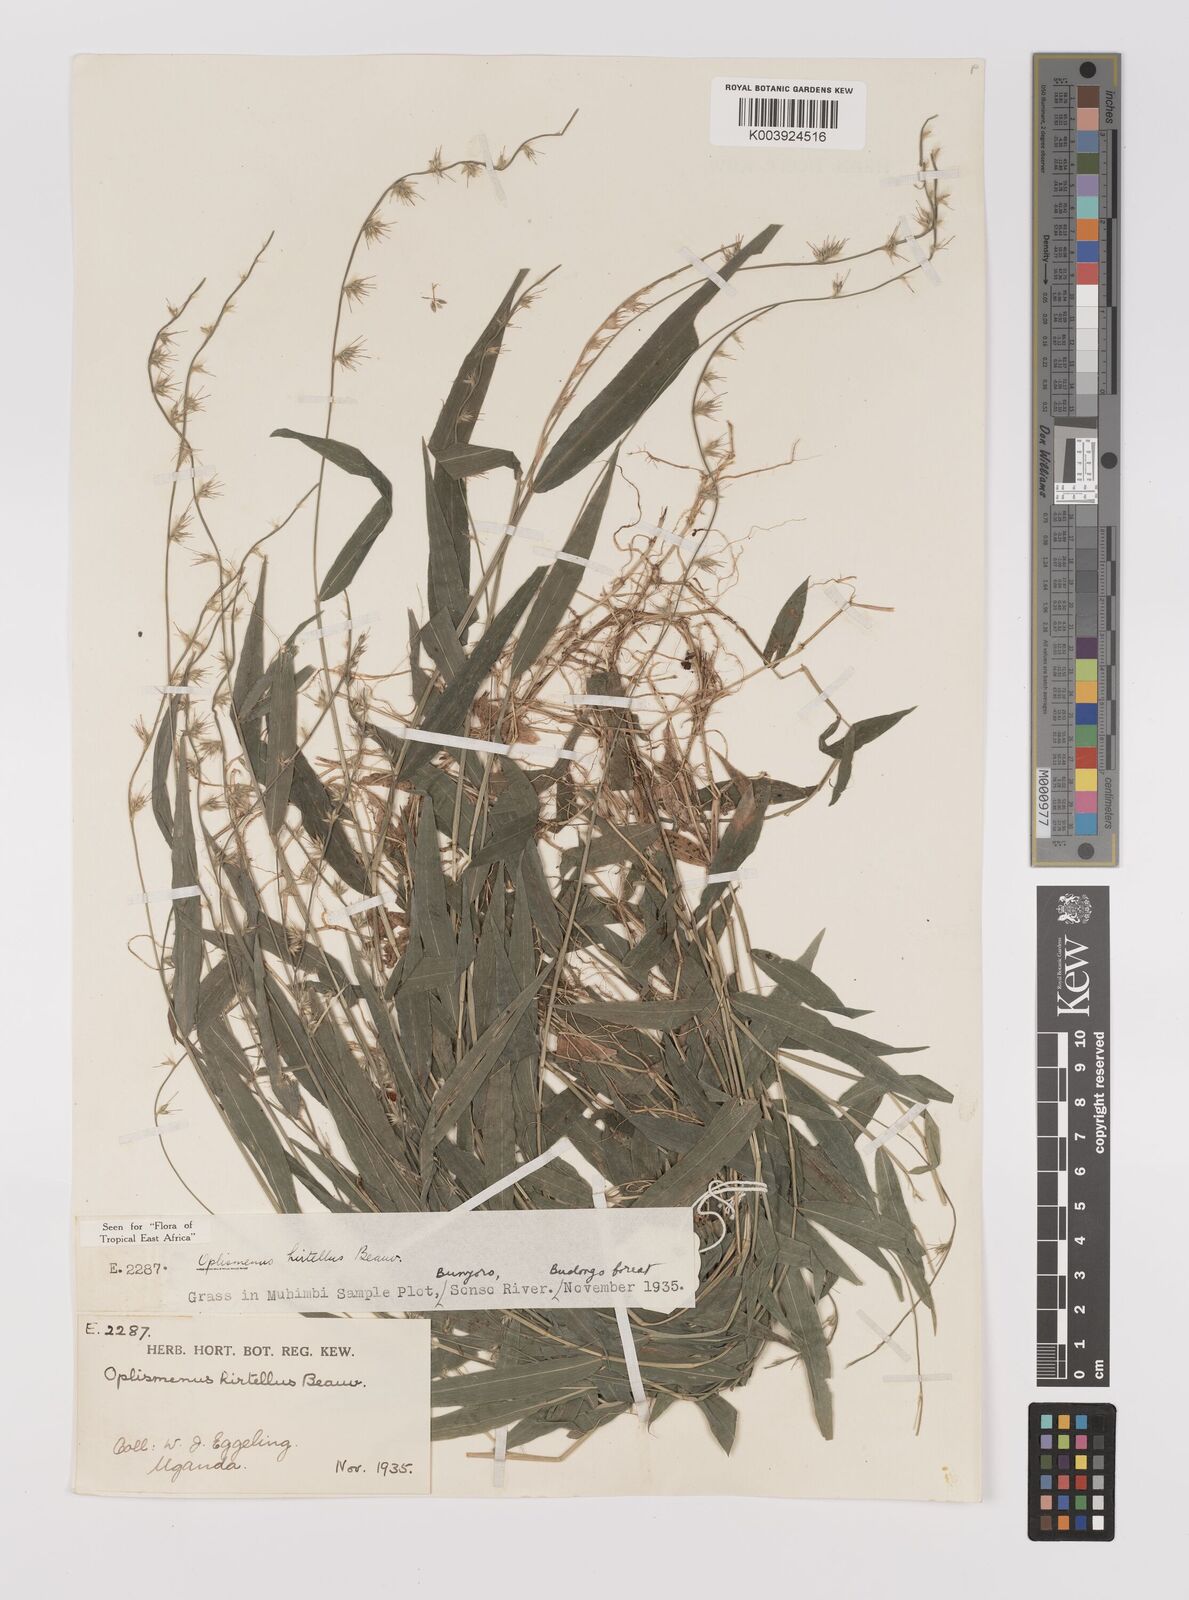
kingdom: Plantae
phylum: Tracheophyta
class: Liliopsida
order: Poales
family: Poaceae
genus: Oplismenus
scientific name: Oplismenus hirtellus
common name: Basketgrass
